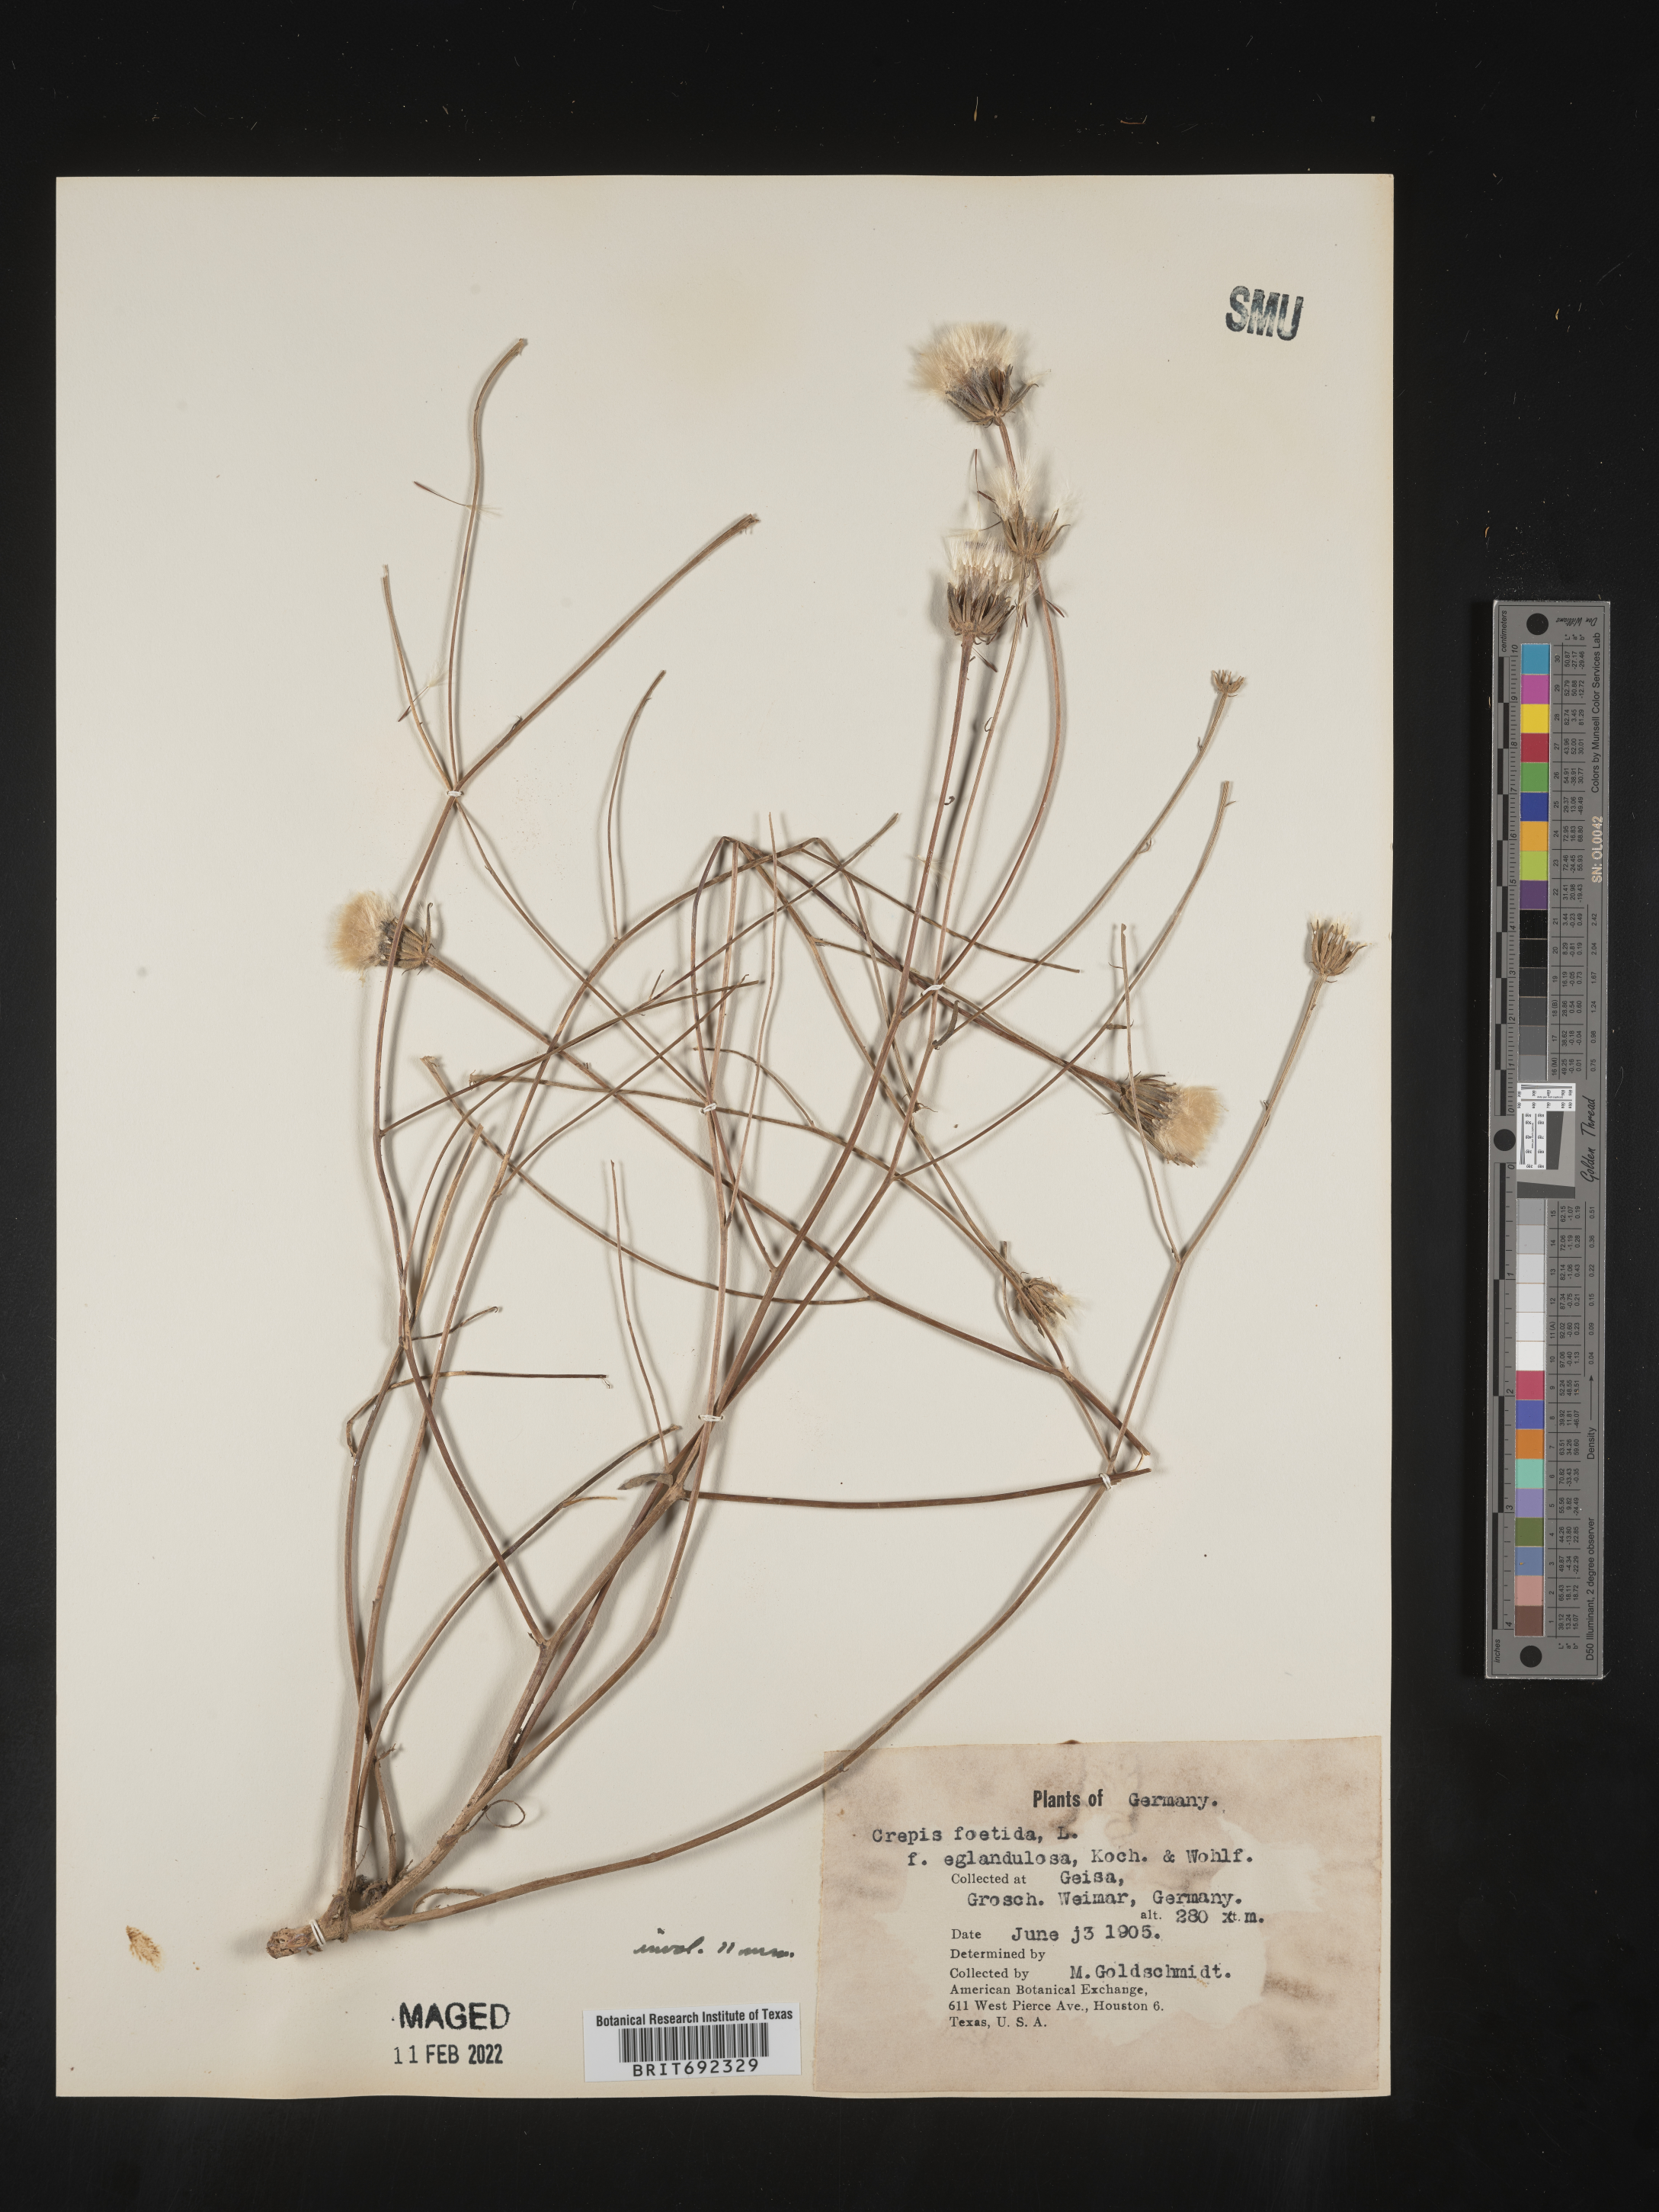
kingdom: Plantae
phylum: Tracheophyta
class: Magnoliopsida
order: Asterales
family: Asteraceae
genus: Crepis
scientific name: Crepis
